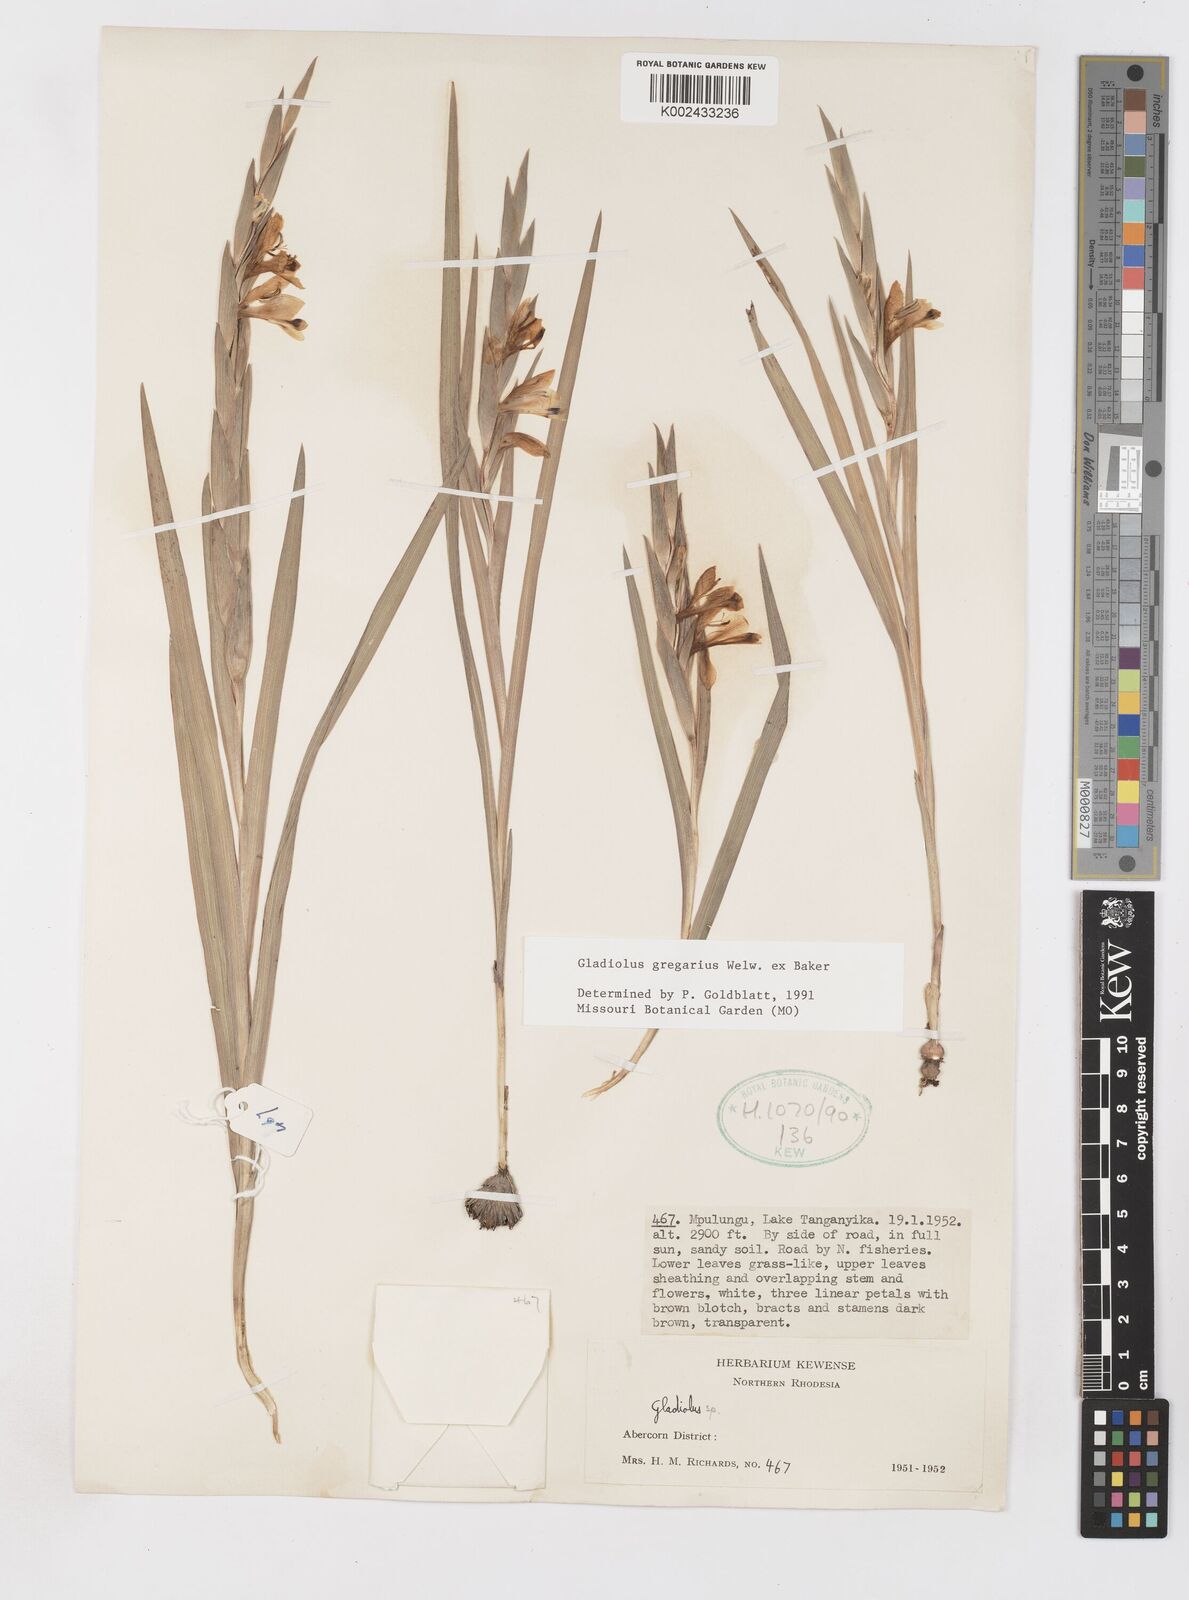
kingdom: Plantae
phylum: Tracheophyta
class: Liliopsida
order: Asparagales
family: Iridaceae
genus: Gladiolus
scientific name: Gladiolus gregarius
